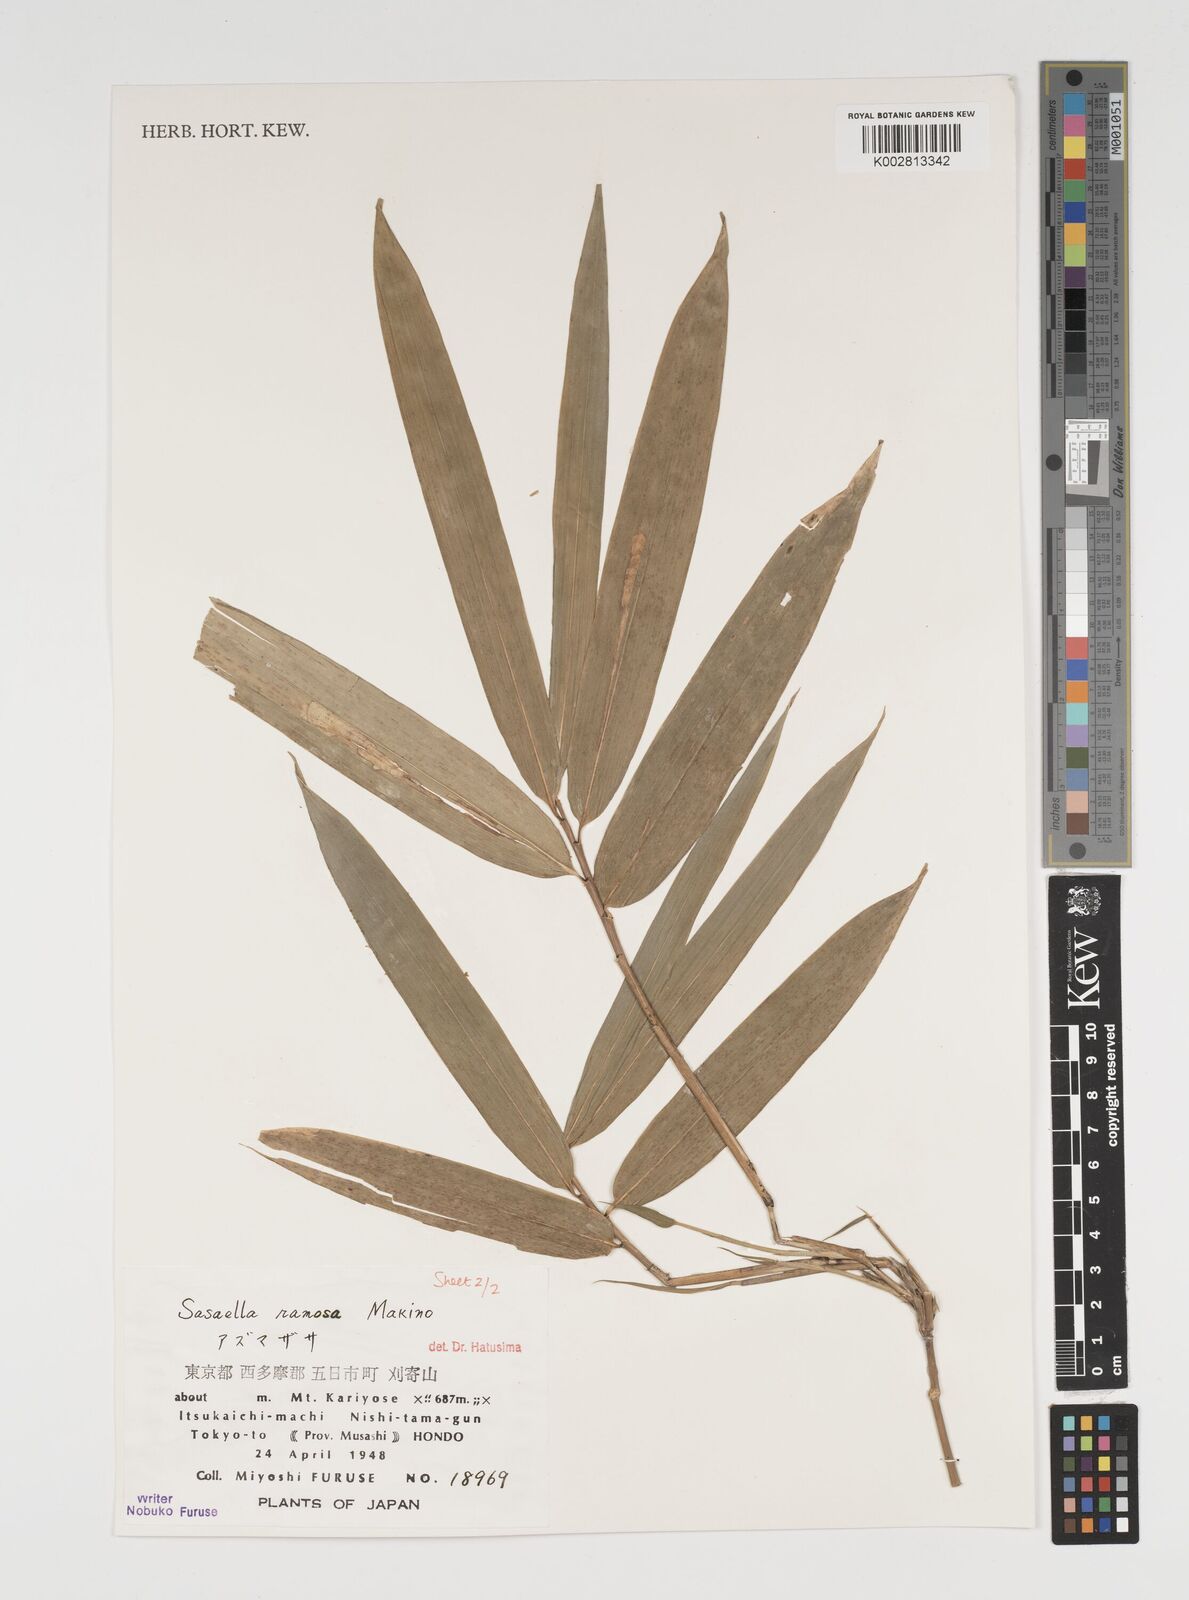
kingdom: Plantae
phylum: Tracheophyta
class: Liliopsida
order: Poales
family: Poaceae
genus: Sasaella
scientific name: Sasaella ramosa
